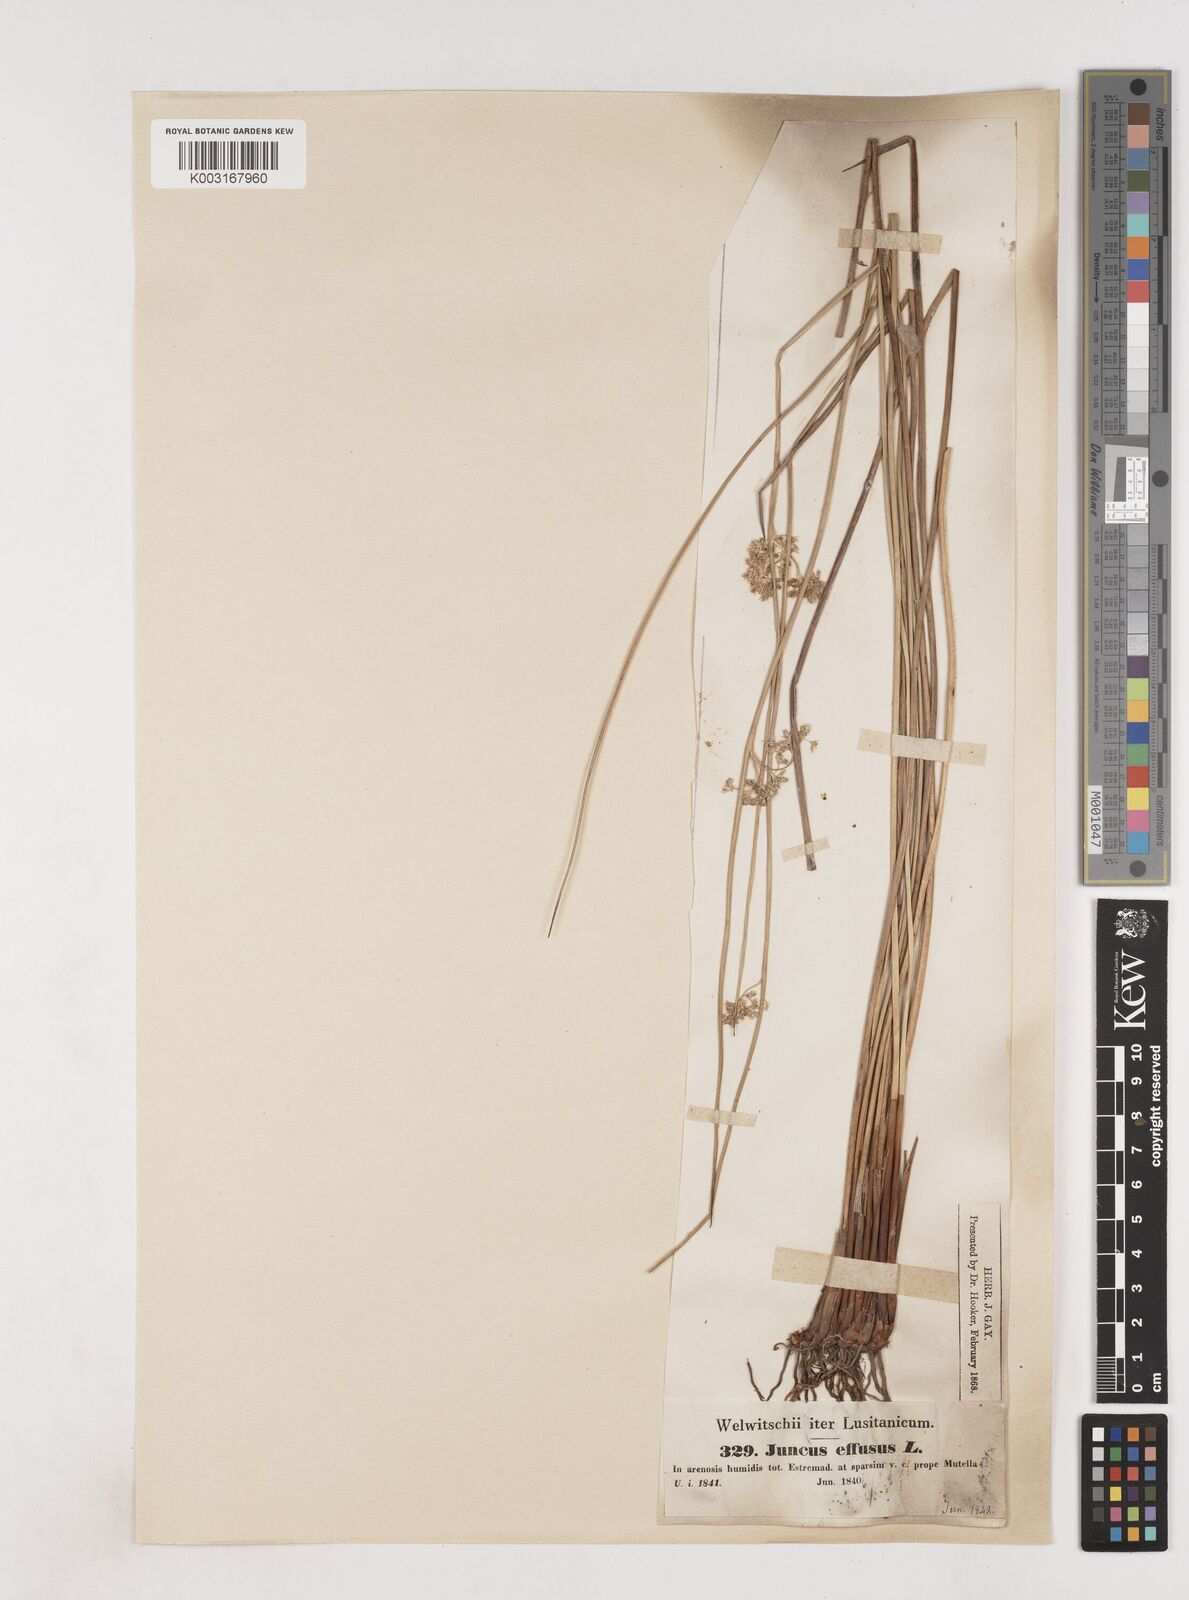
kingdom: Plantae
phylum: Tracheophyta
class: Liliopsida
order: Poales
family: Juncaceae
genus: Juncus
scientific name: Juncus effusus
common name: Soft rush
